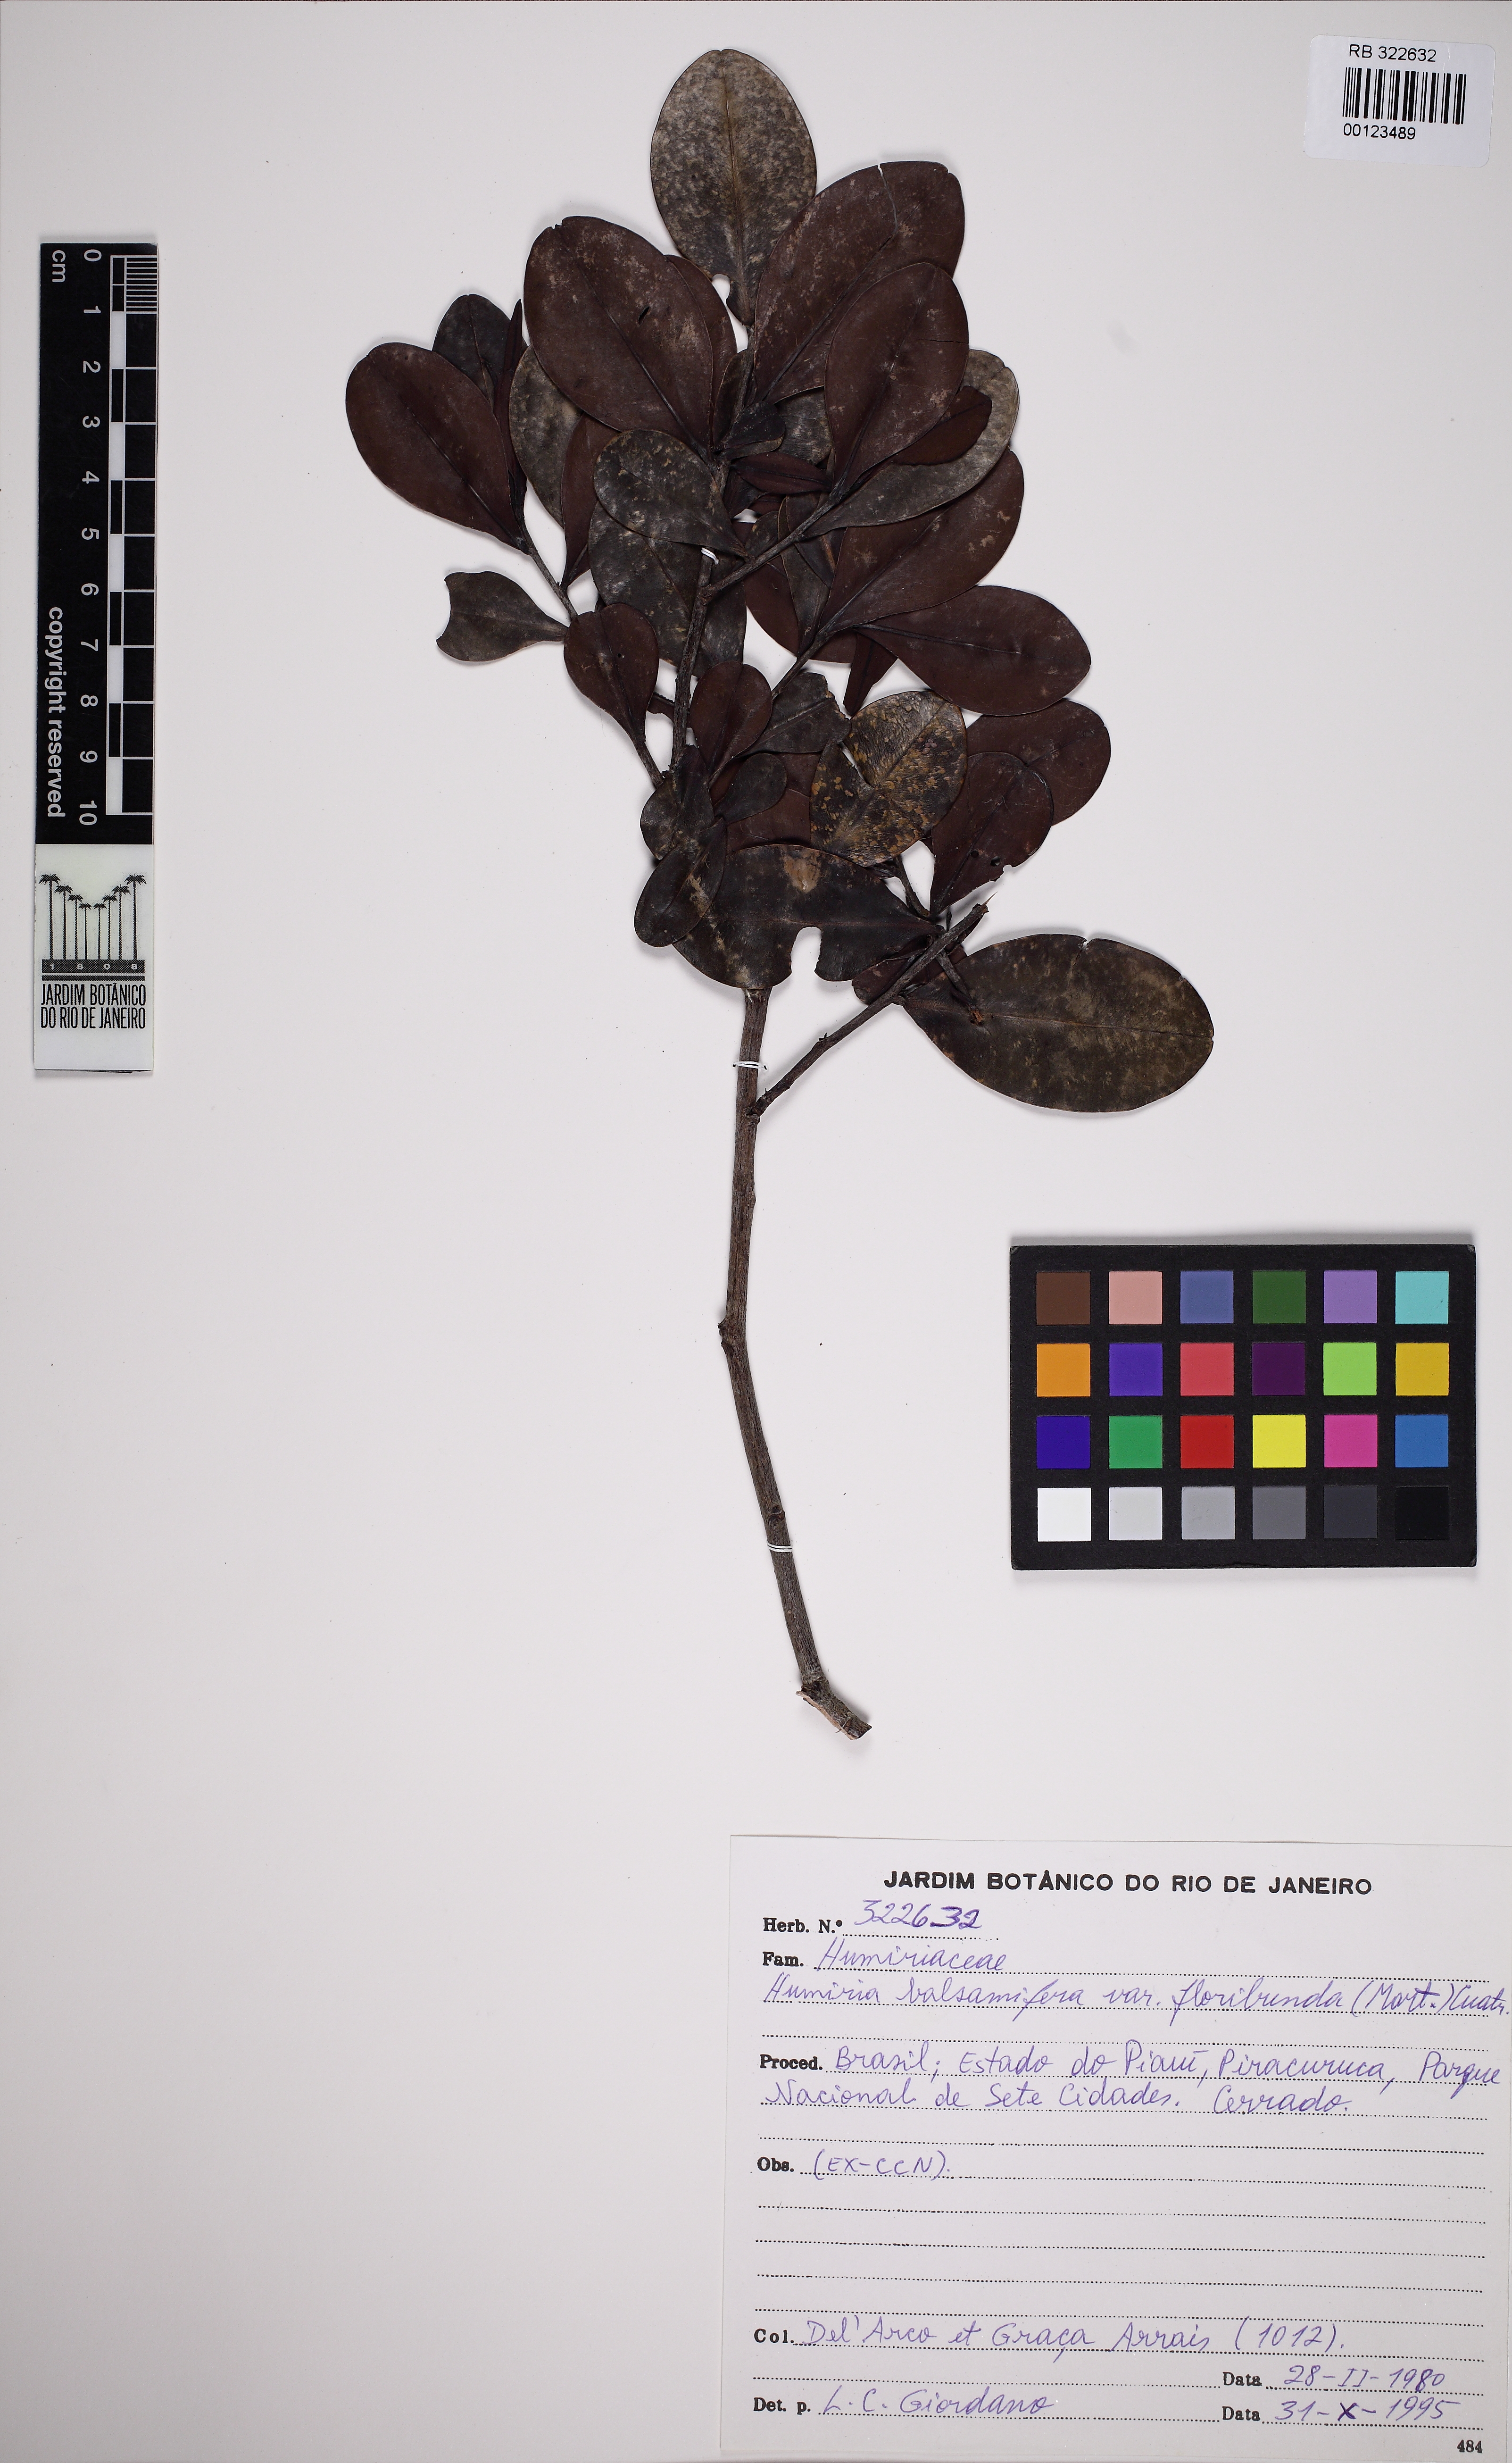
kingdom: Plantae
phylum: Tracheophyta
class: Magnoliopsida
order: Malpighiales
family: Humiriaceae
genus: Humiria
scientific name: Humiria balsamifera
